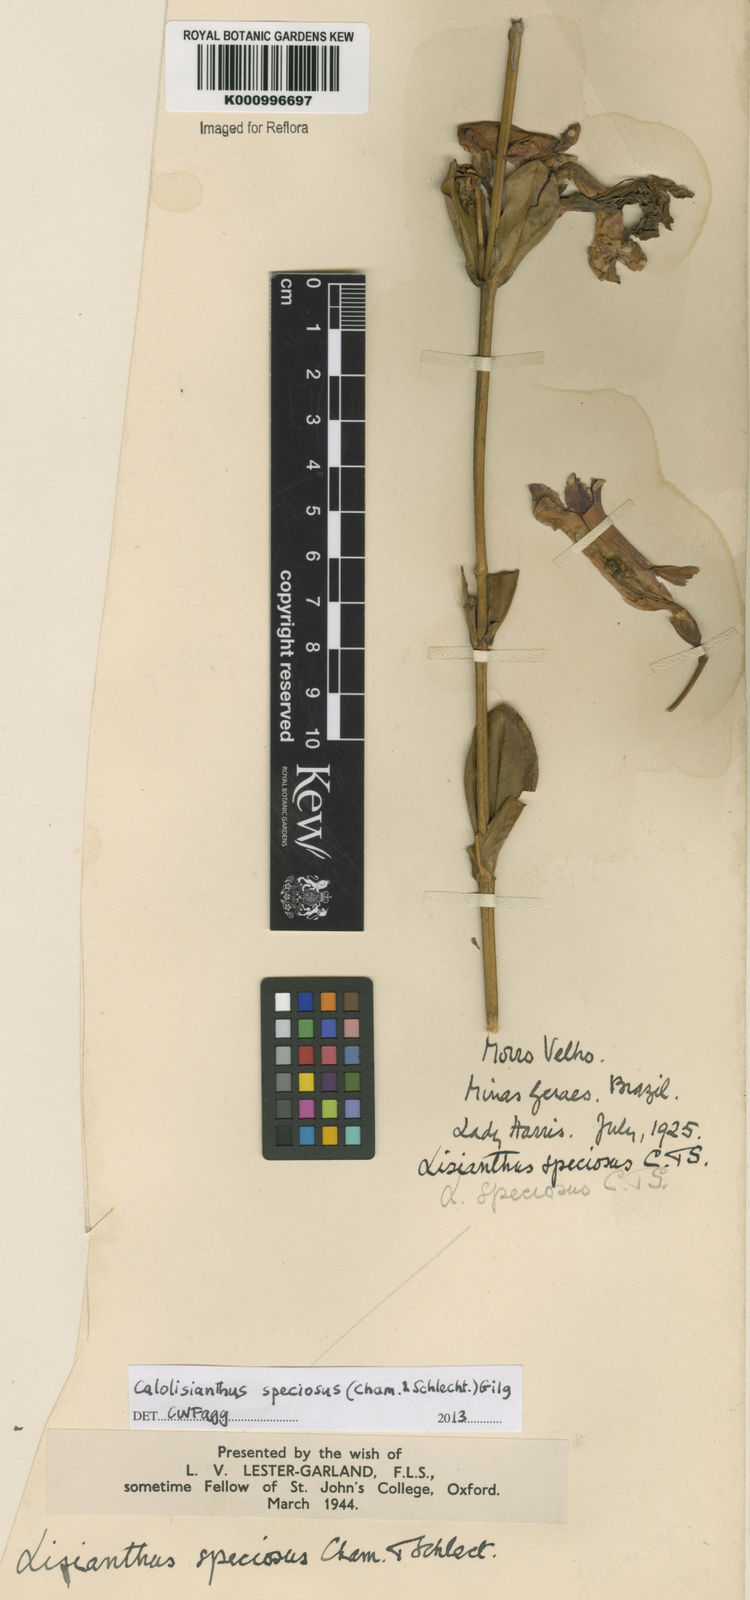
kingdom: Plantae
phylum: Tracheophyta
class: Magnoliopsida
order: Gentianales
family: Gentianaceae
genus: Calolisianthus
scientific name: Calolisianthus speciosus
